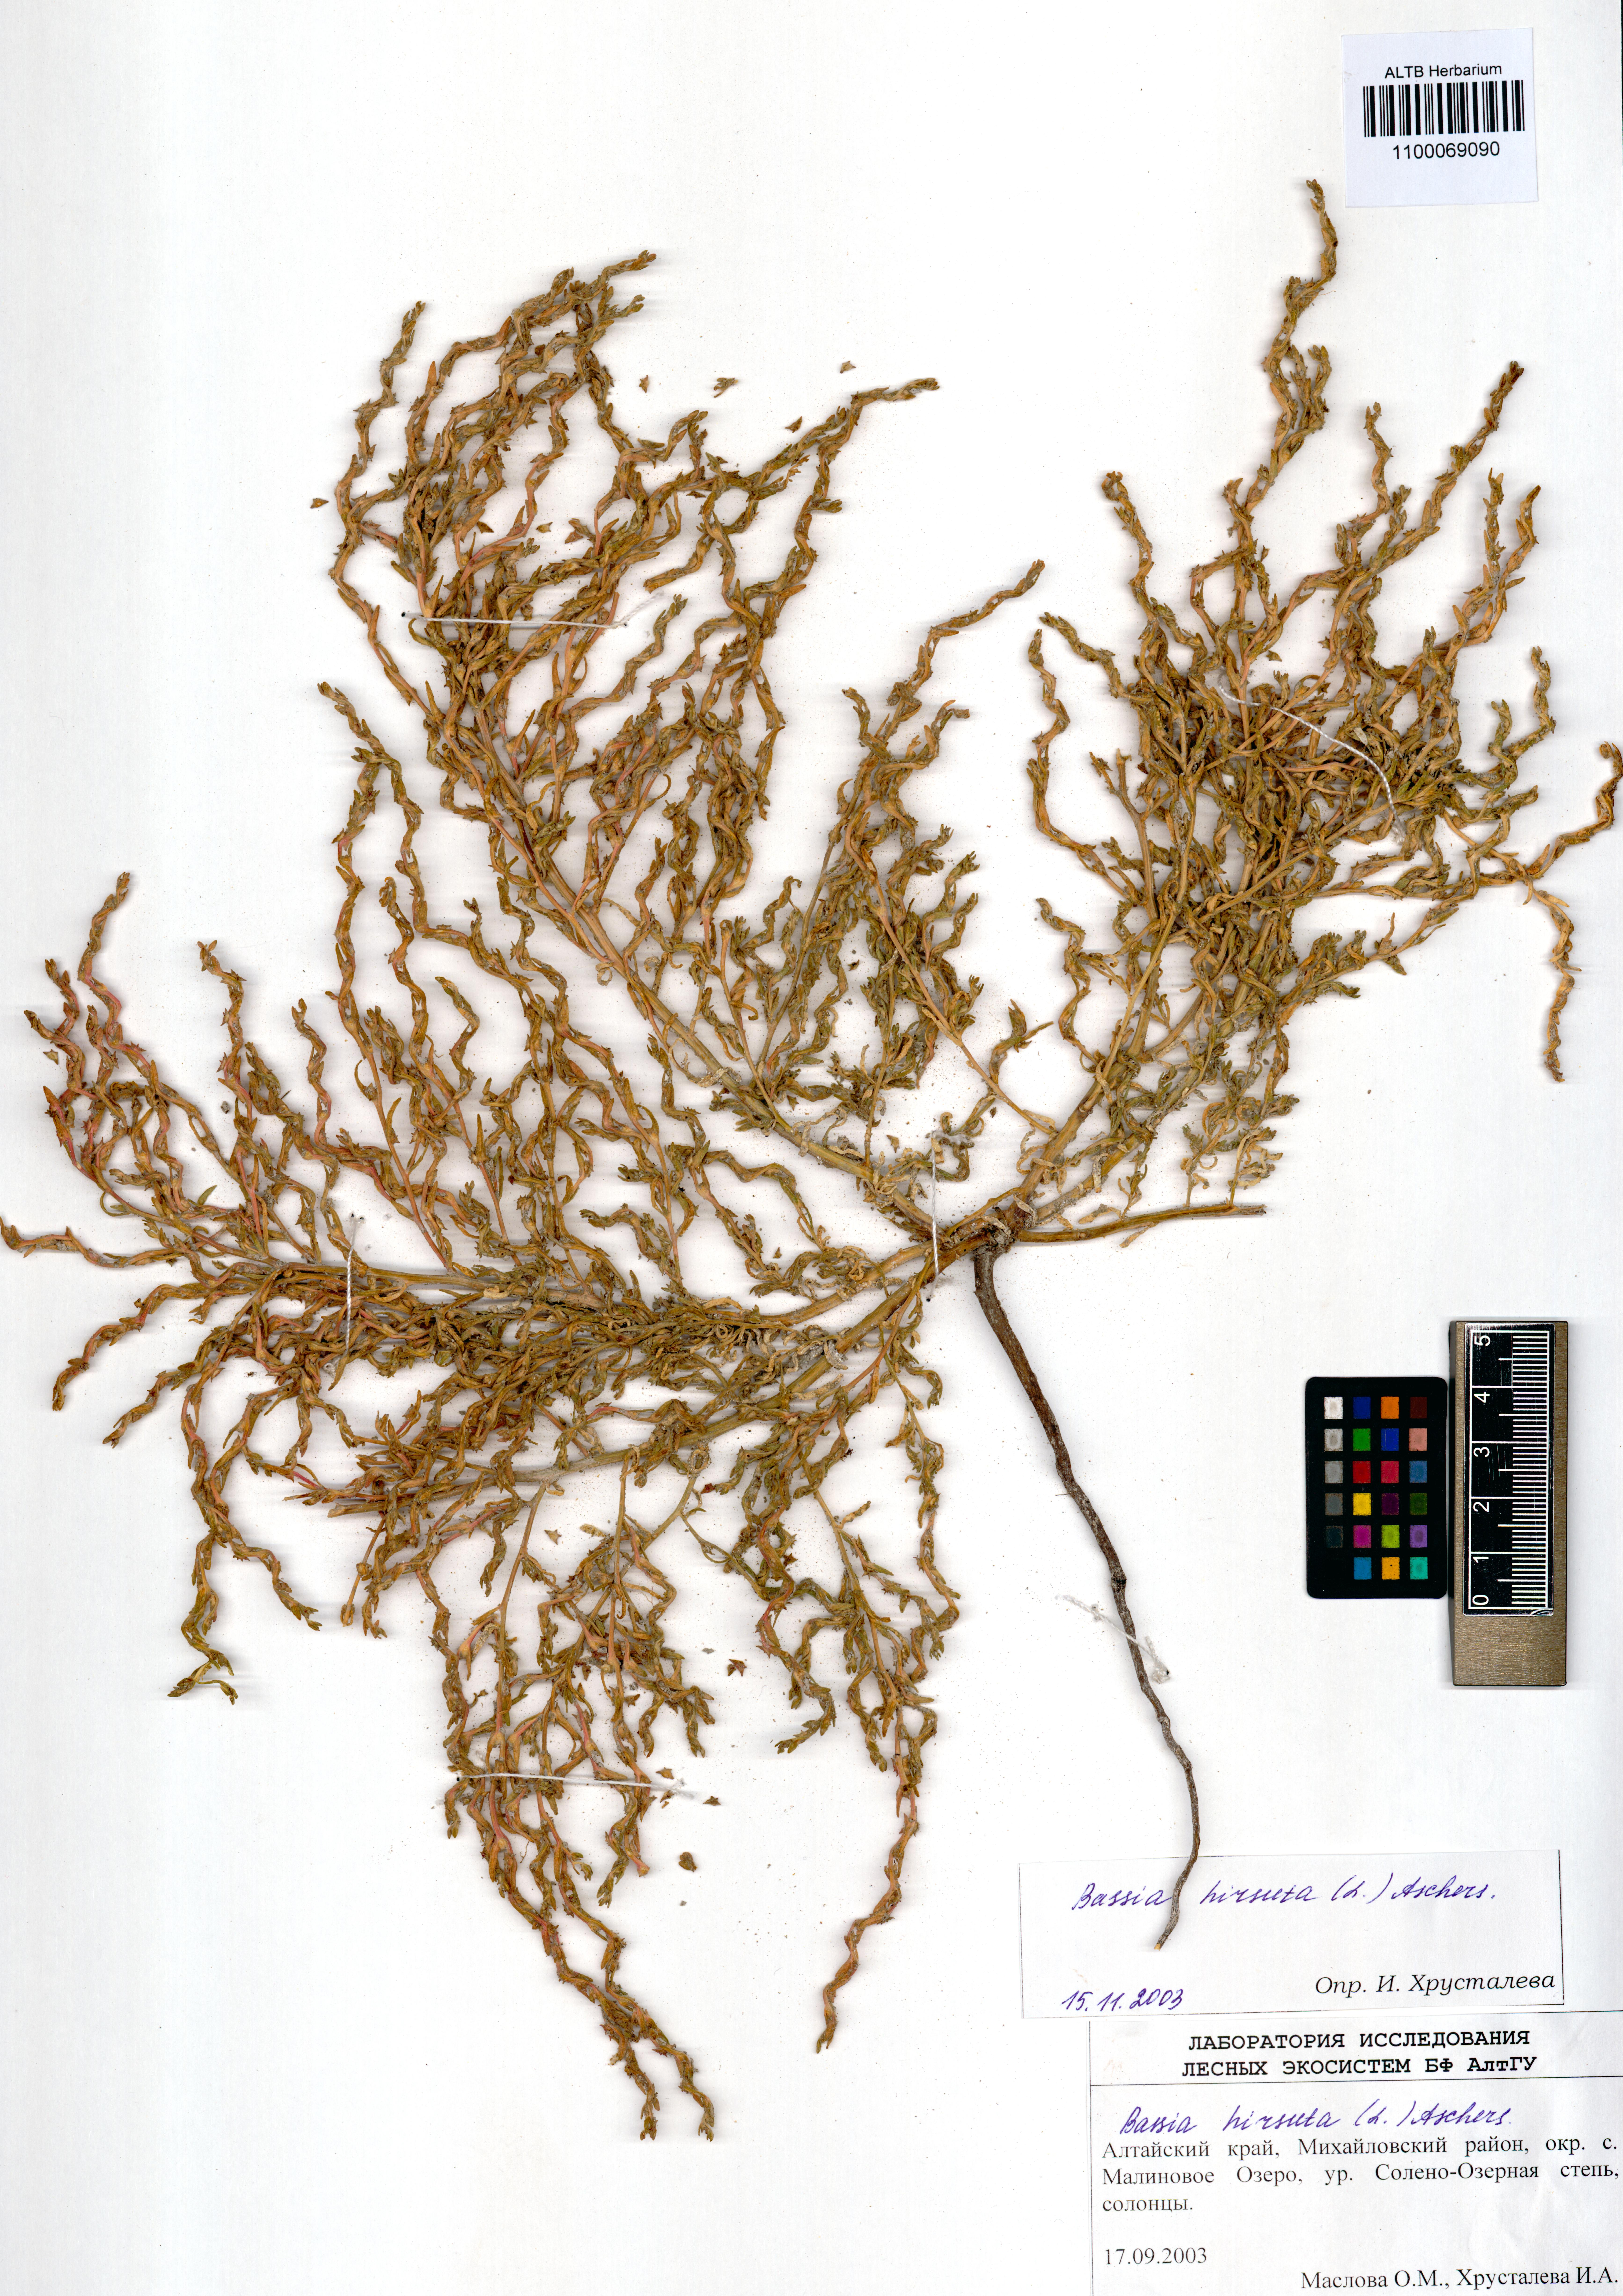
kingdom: Plantae
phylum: Tracheophyta
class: Magnoliopsida
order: Caryophyllales
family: Amaranthaceae
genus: Spirobassia
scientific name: Spirobassia hirsuta
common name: Hairy smotherweed
